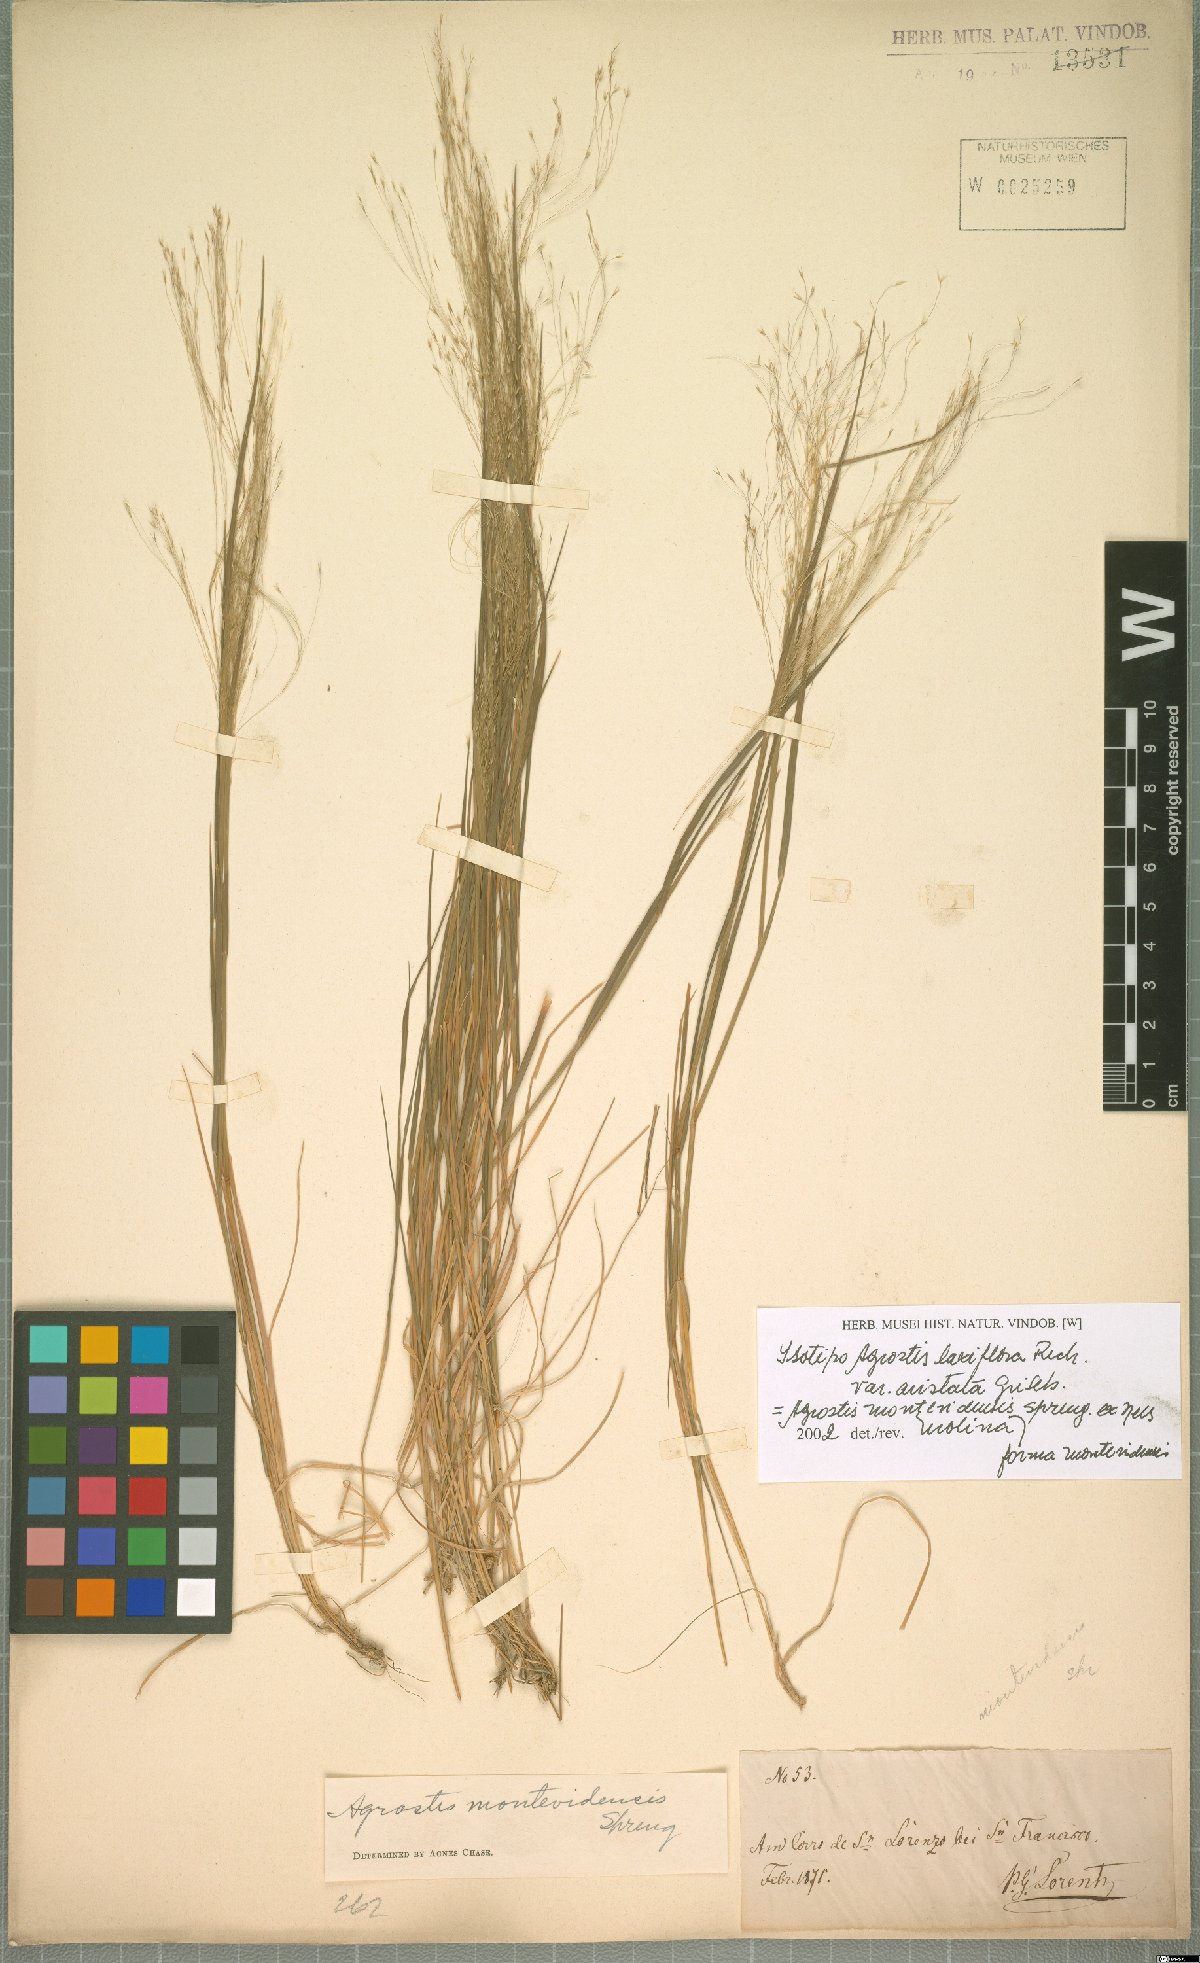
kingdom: Plantae
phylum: Tracheophyta
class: Liliopsida
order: Poales
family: Poaceae
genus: Agrostis
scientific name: Agrostis montevidensis
